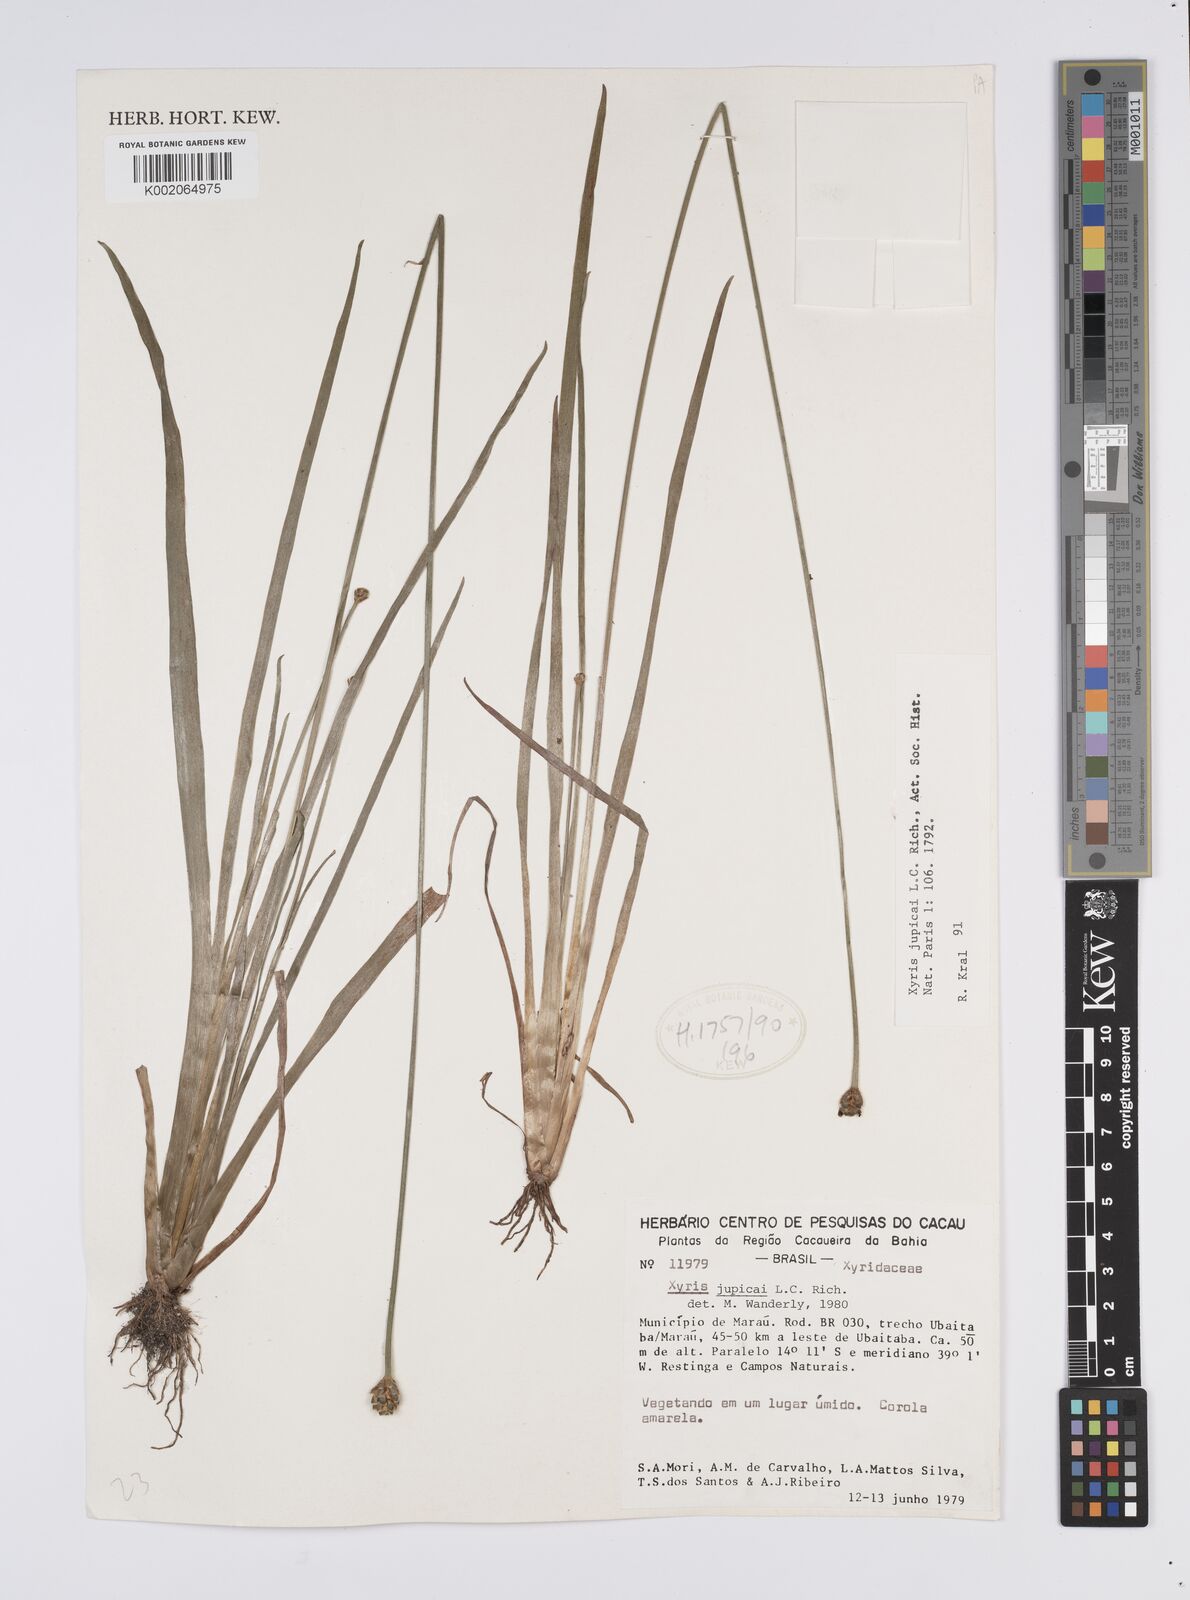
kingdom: Plantae
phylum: Tracheophyta
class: Liliopsida
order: Poales
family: Xyridaceae
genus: Xyris
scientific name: Xyris jupicai
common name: Richard's yelloweyed grass
